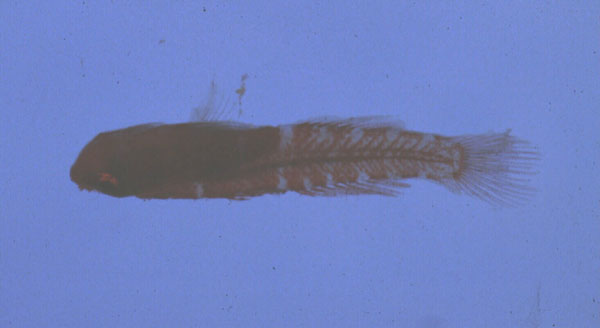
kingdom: Animalia
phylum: Chordata
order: Perciformes
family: Gobiidae
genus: Trimmatom
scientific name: Trimmatom nanus
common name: Atom goby
